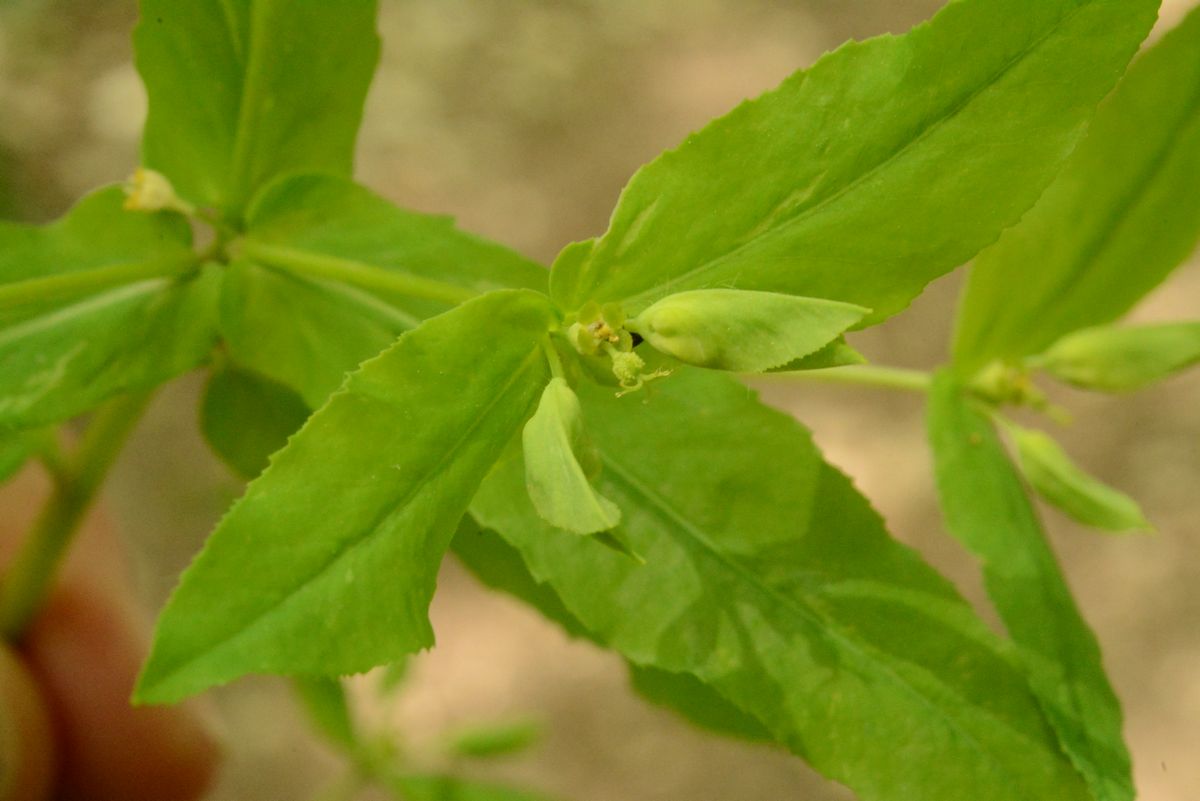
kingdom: Plantae
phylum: Tracheophyta
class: Magnoliopsida
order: Malpighiales
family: Euphorbiaceae
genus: Euphorbia
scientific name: Euphorbia stricta
